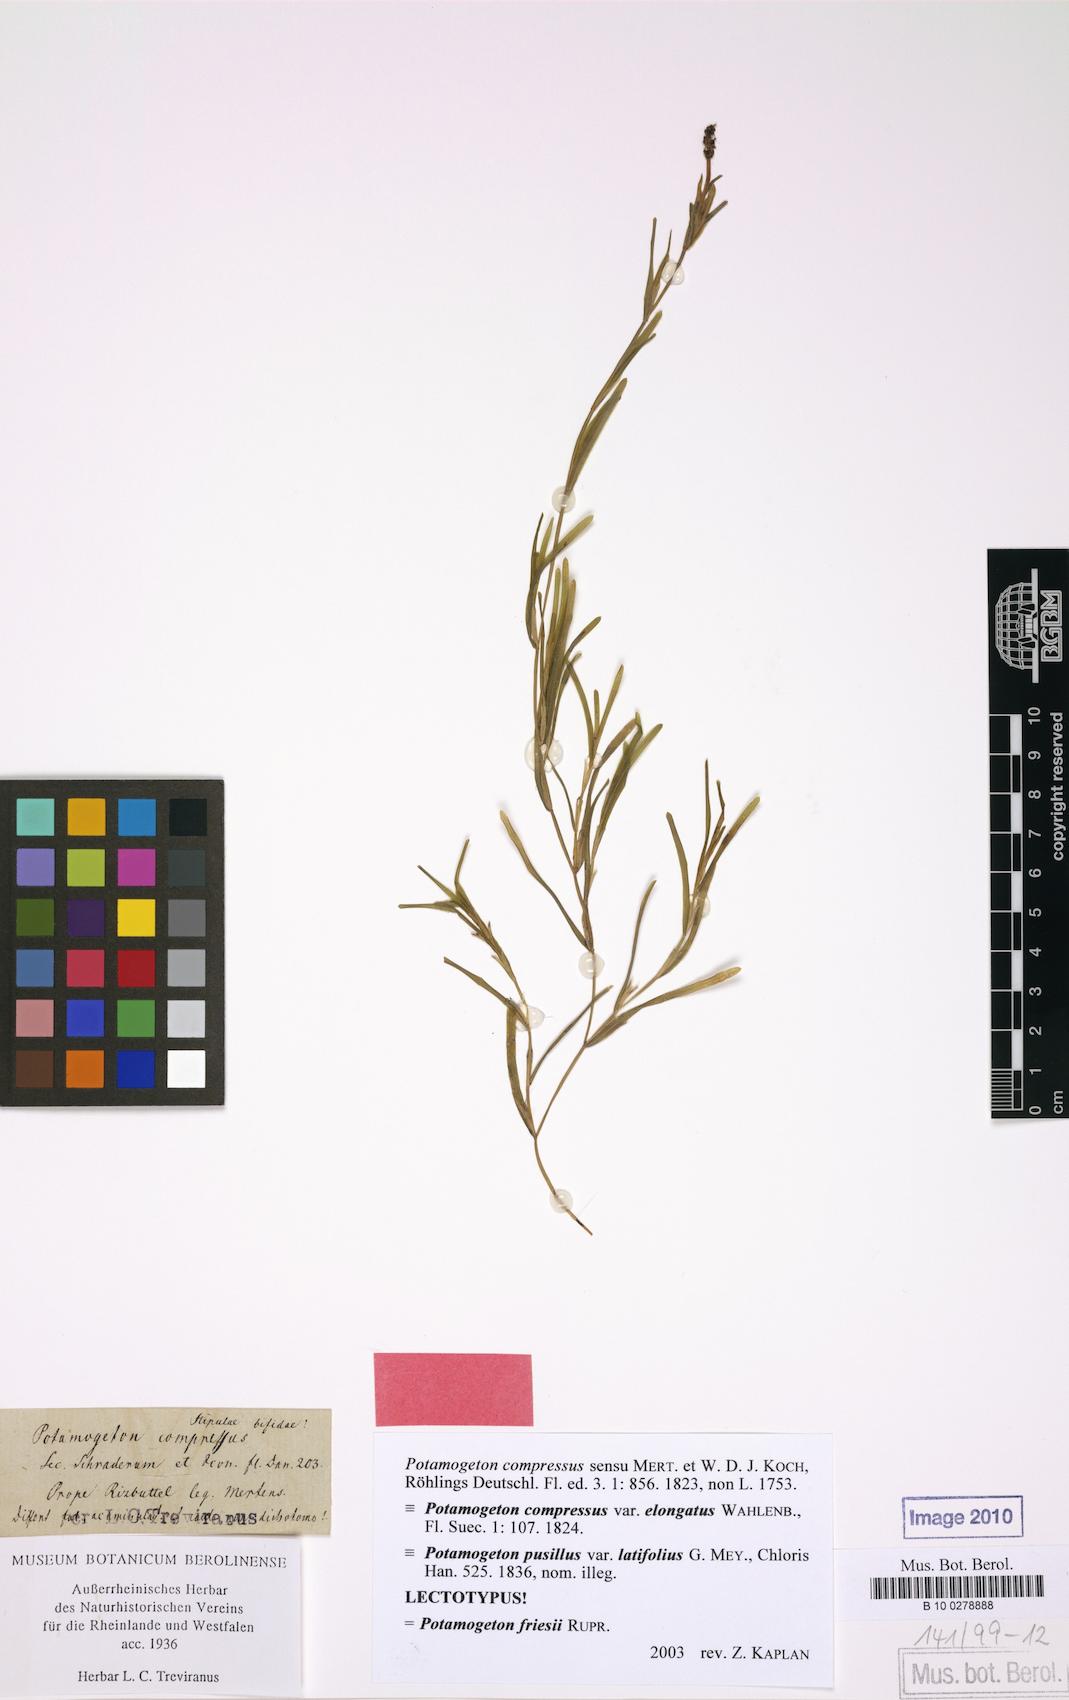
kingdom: Plantae
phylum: Tracheophyta
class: Liliopsida
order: Alismatales
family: Potamogetonaceae
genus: Potamogeton
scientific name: Potamogeton friesii
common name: Flat-stalked pondweed
